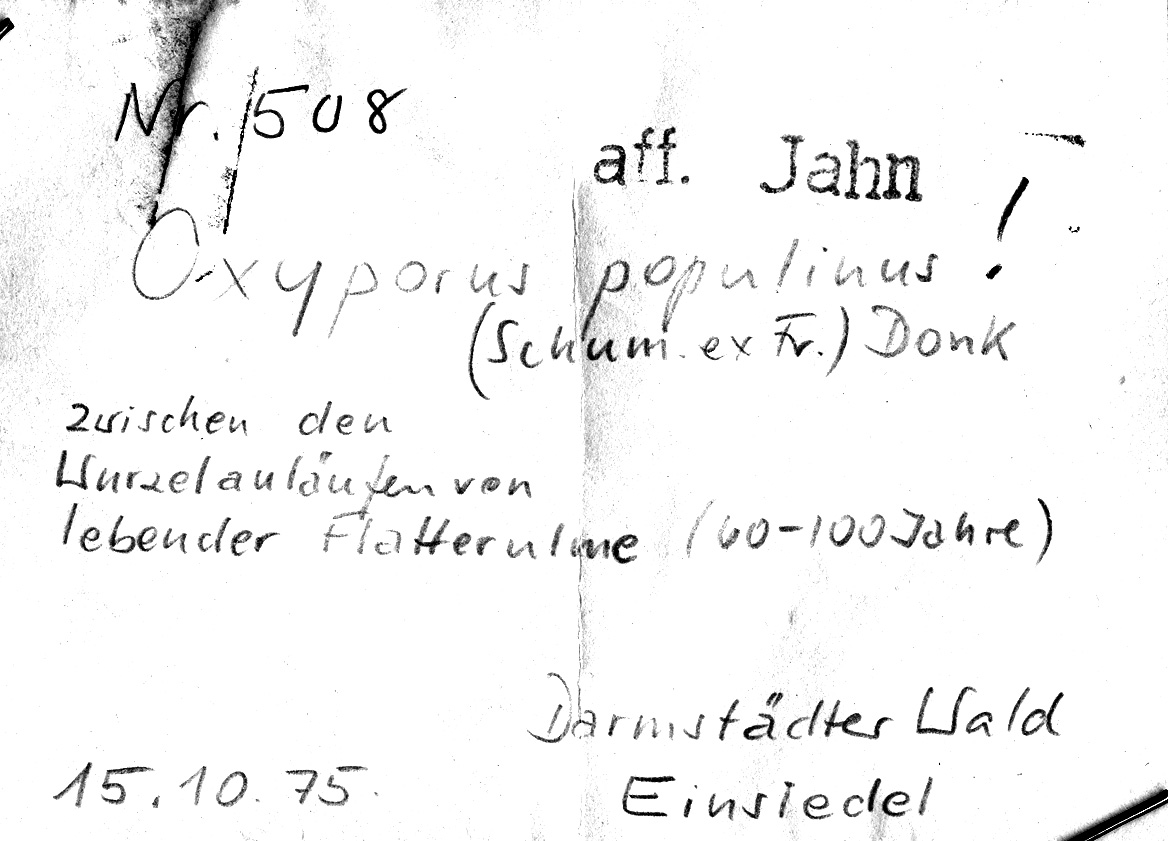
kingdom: Plantae
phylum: Tracheophyta
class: Magnoliopsida
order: Rosales
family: Ulmaceae
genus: Ulmus
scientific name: Ulmus laevis
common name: European white-elm
